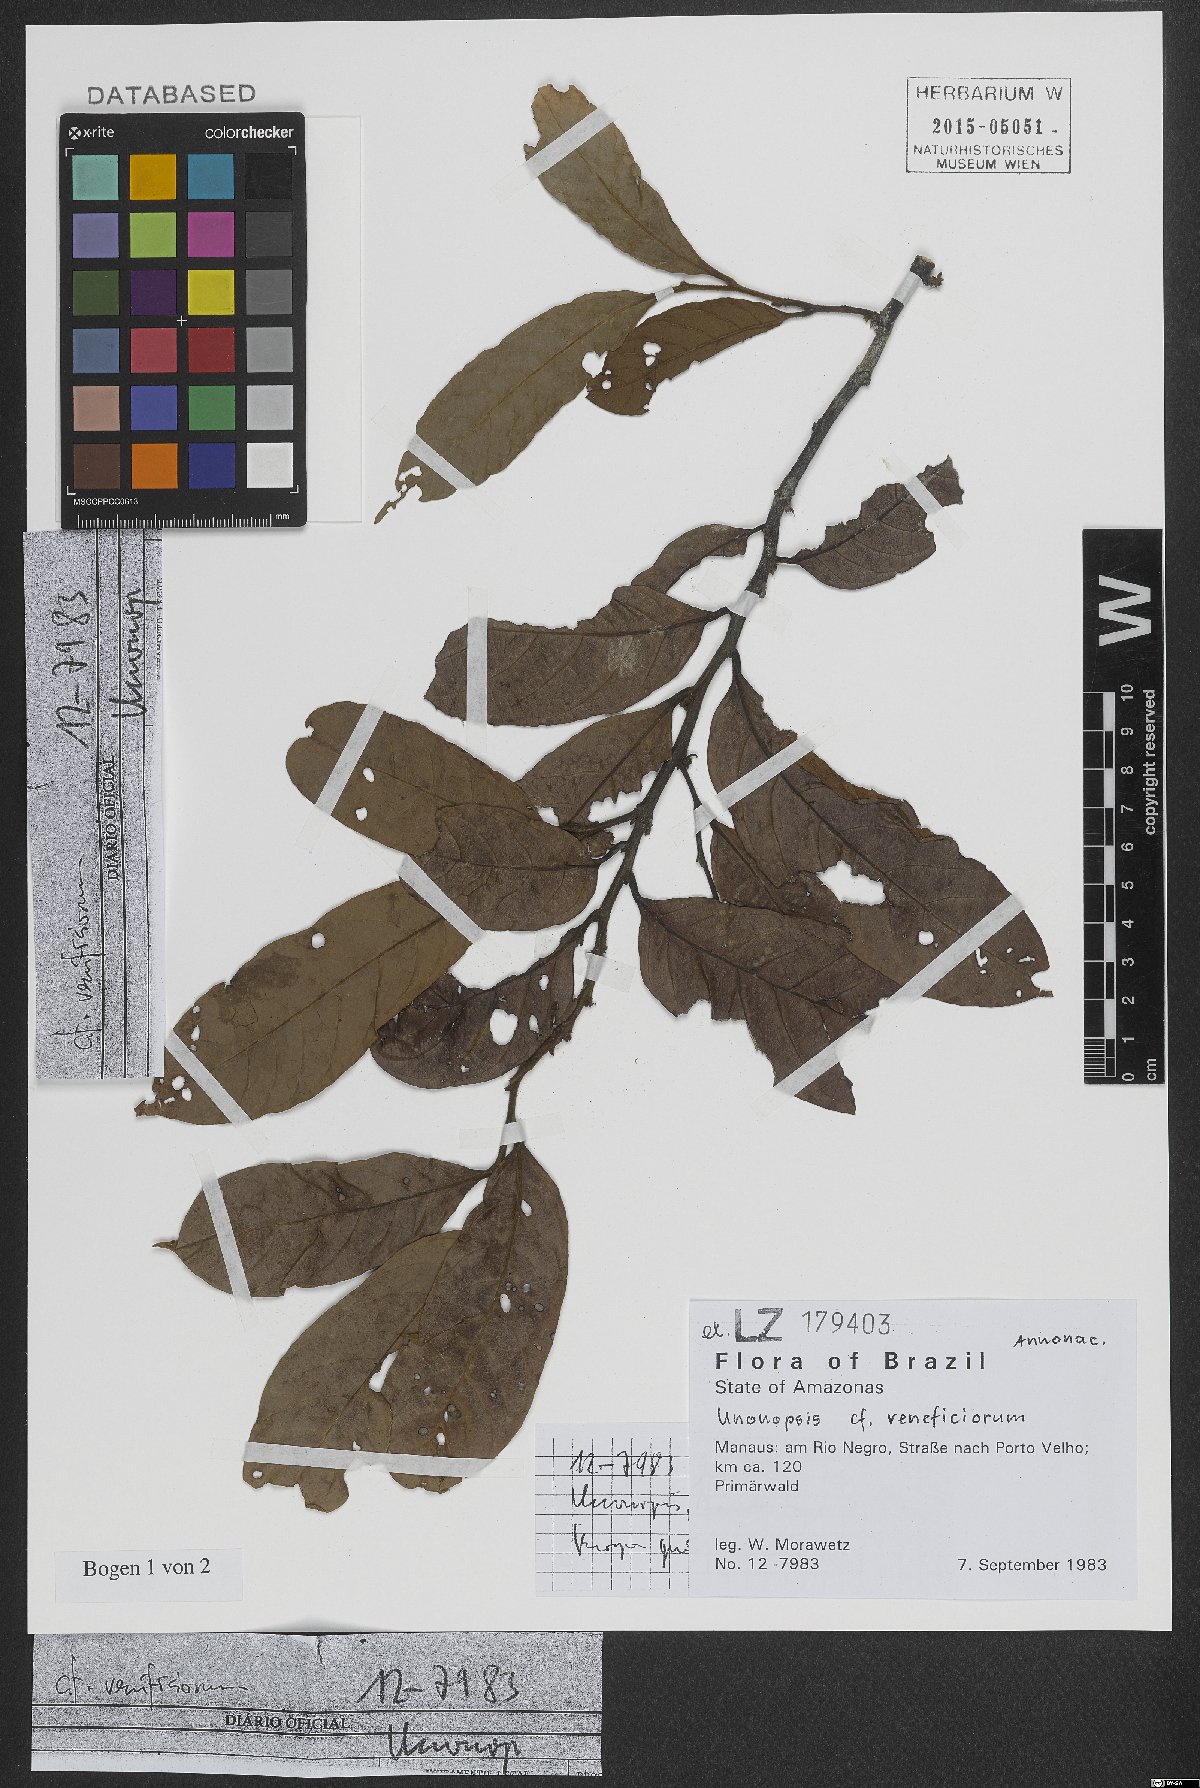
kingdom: Plantae
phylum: Tracheophyta
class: Magnoliopsida
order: Magnoliales
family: Annonaceae
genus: Unonopsis
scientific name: Unonopsis veneficiorum
